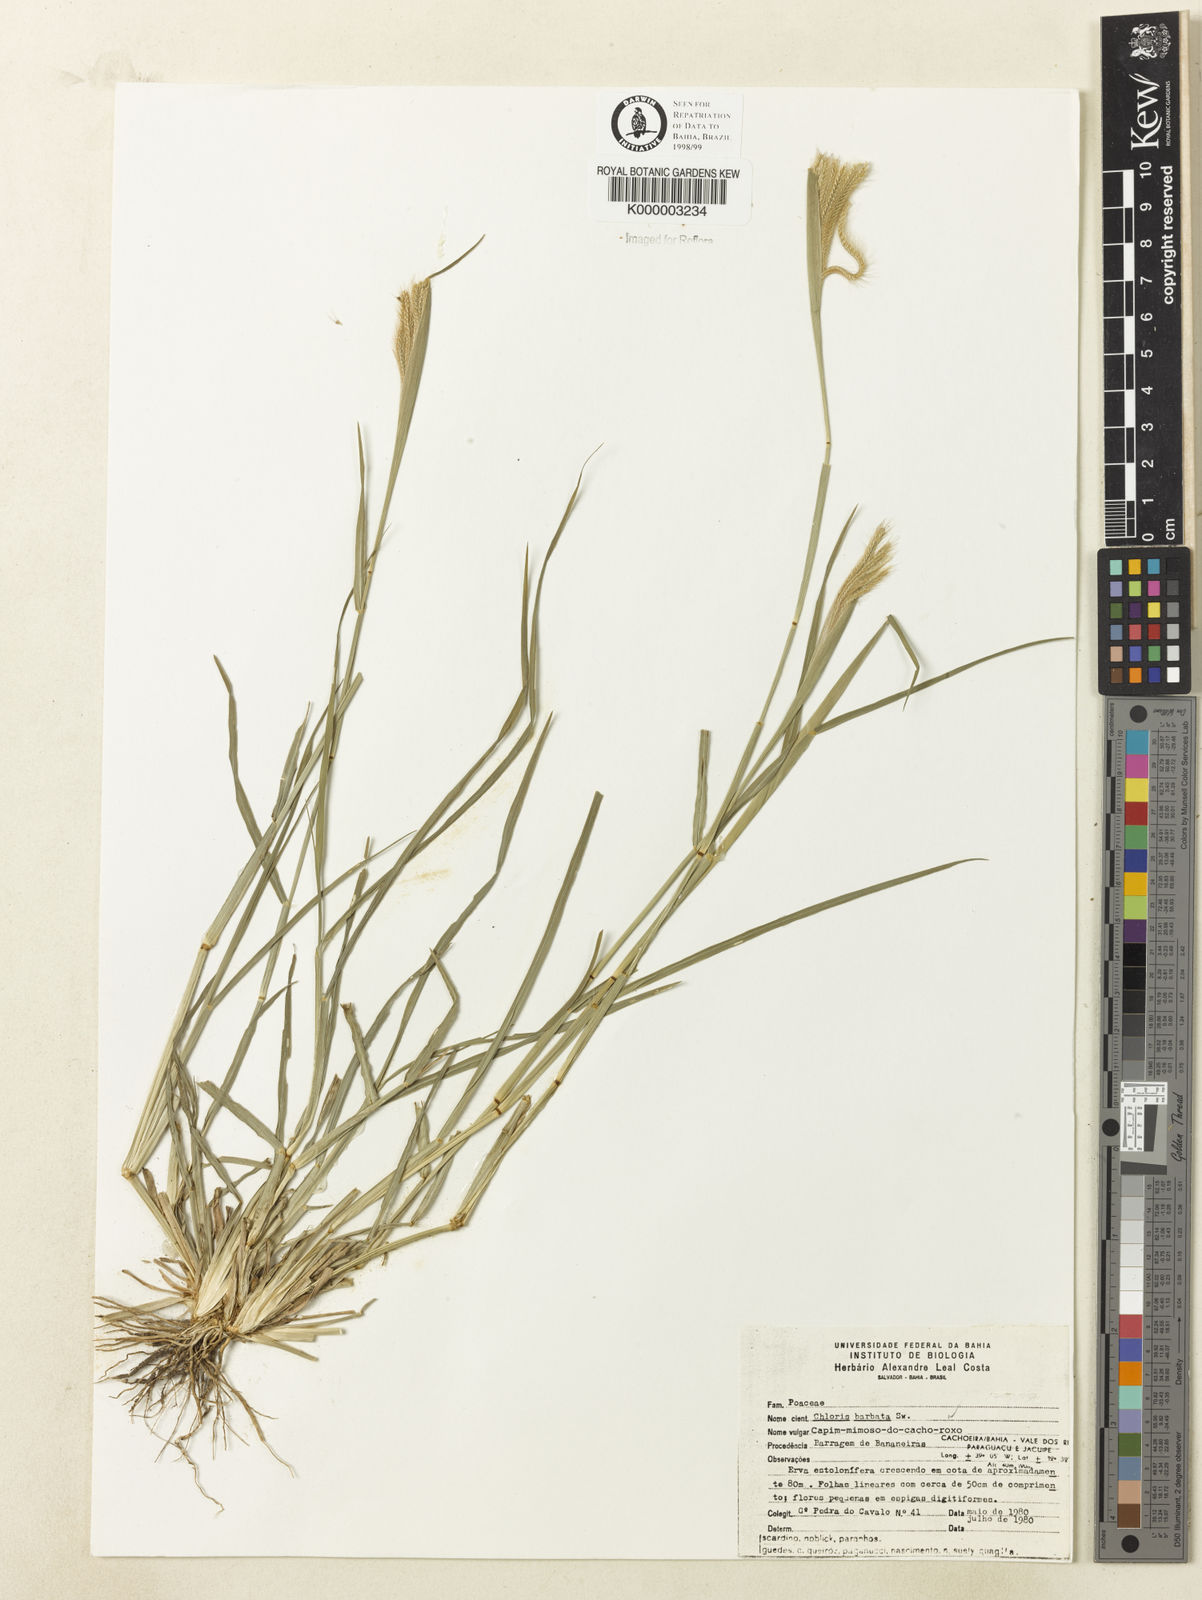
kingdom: Plantae
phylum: Tracheophyta
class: Liliopsida
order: Poales
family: Poaceae
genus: Chloris
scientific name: Chloris
